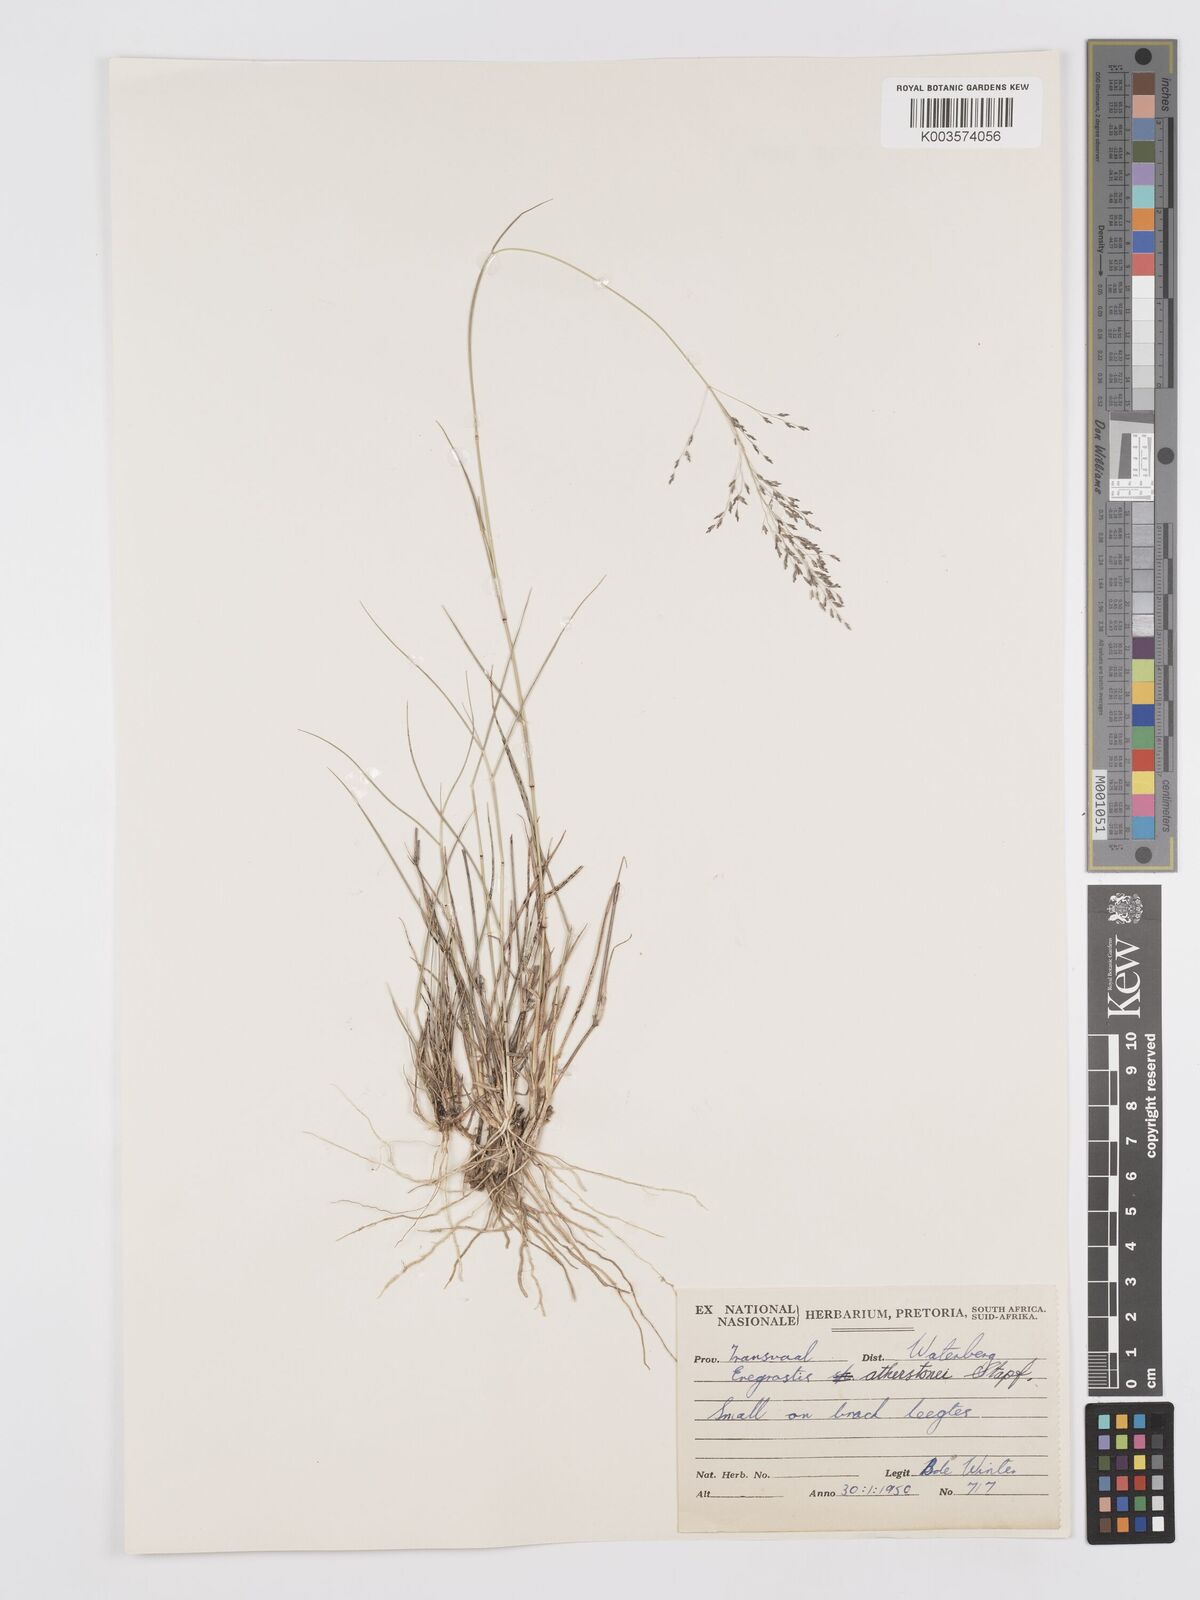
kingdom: Plantae
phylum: Tracheophyta
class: Liliopsida
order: Poales
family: Poaceae
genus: Eragrostis
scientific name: Eragrostis cylindriflora
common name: Cylinderflower lovegrass
